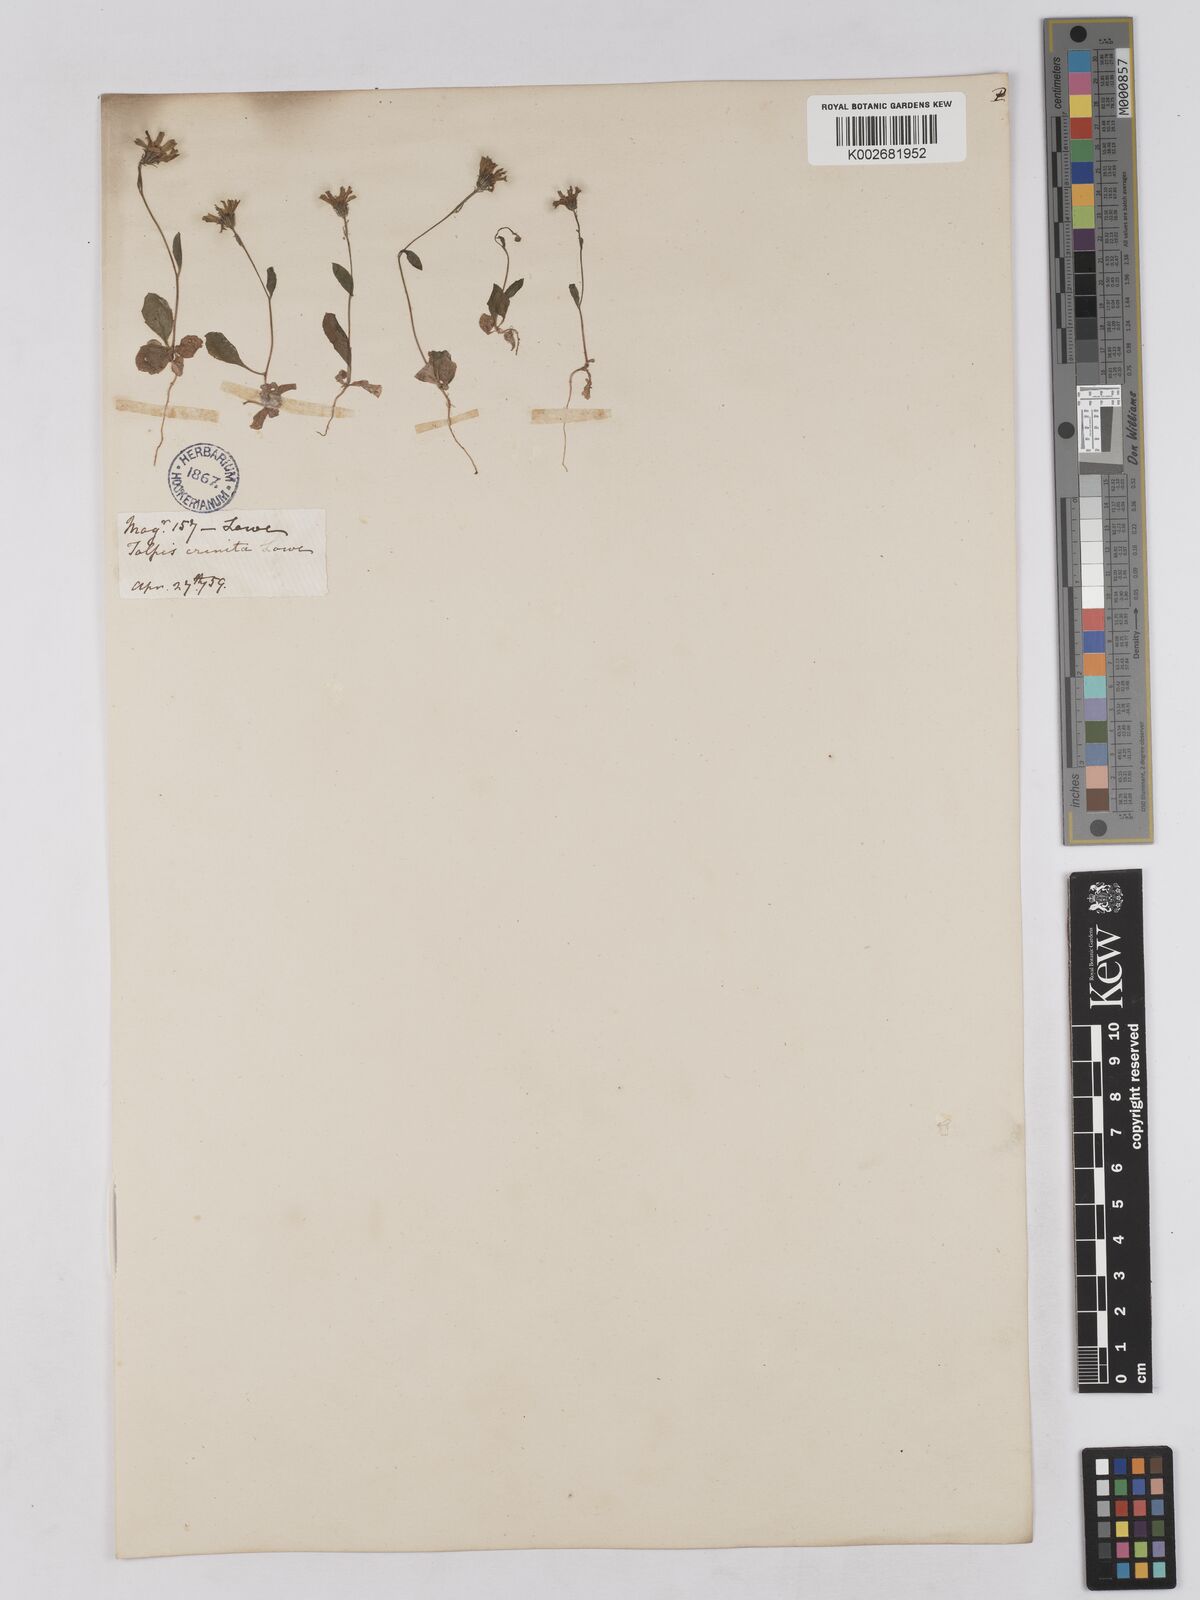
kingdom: Plantae
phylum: Tracheophyta
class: Magnoliopsida
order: Asterales
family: Asteraceae
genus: Tolpis
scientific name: Tolpis umbellata
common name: Yellow hawkweed
